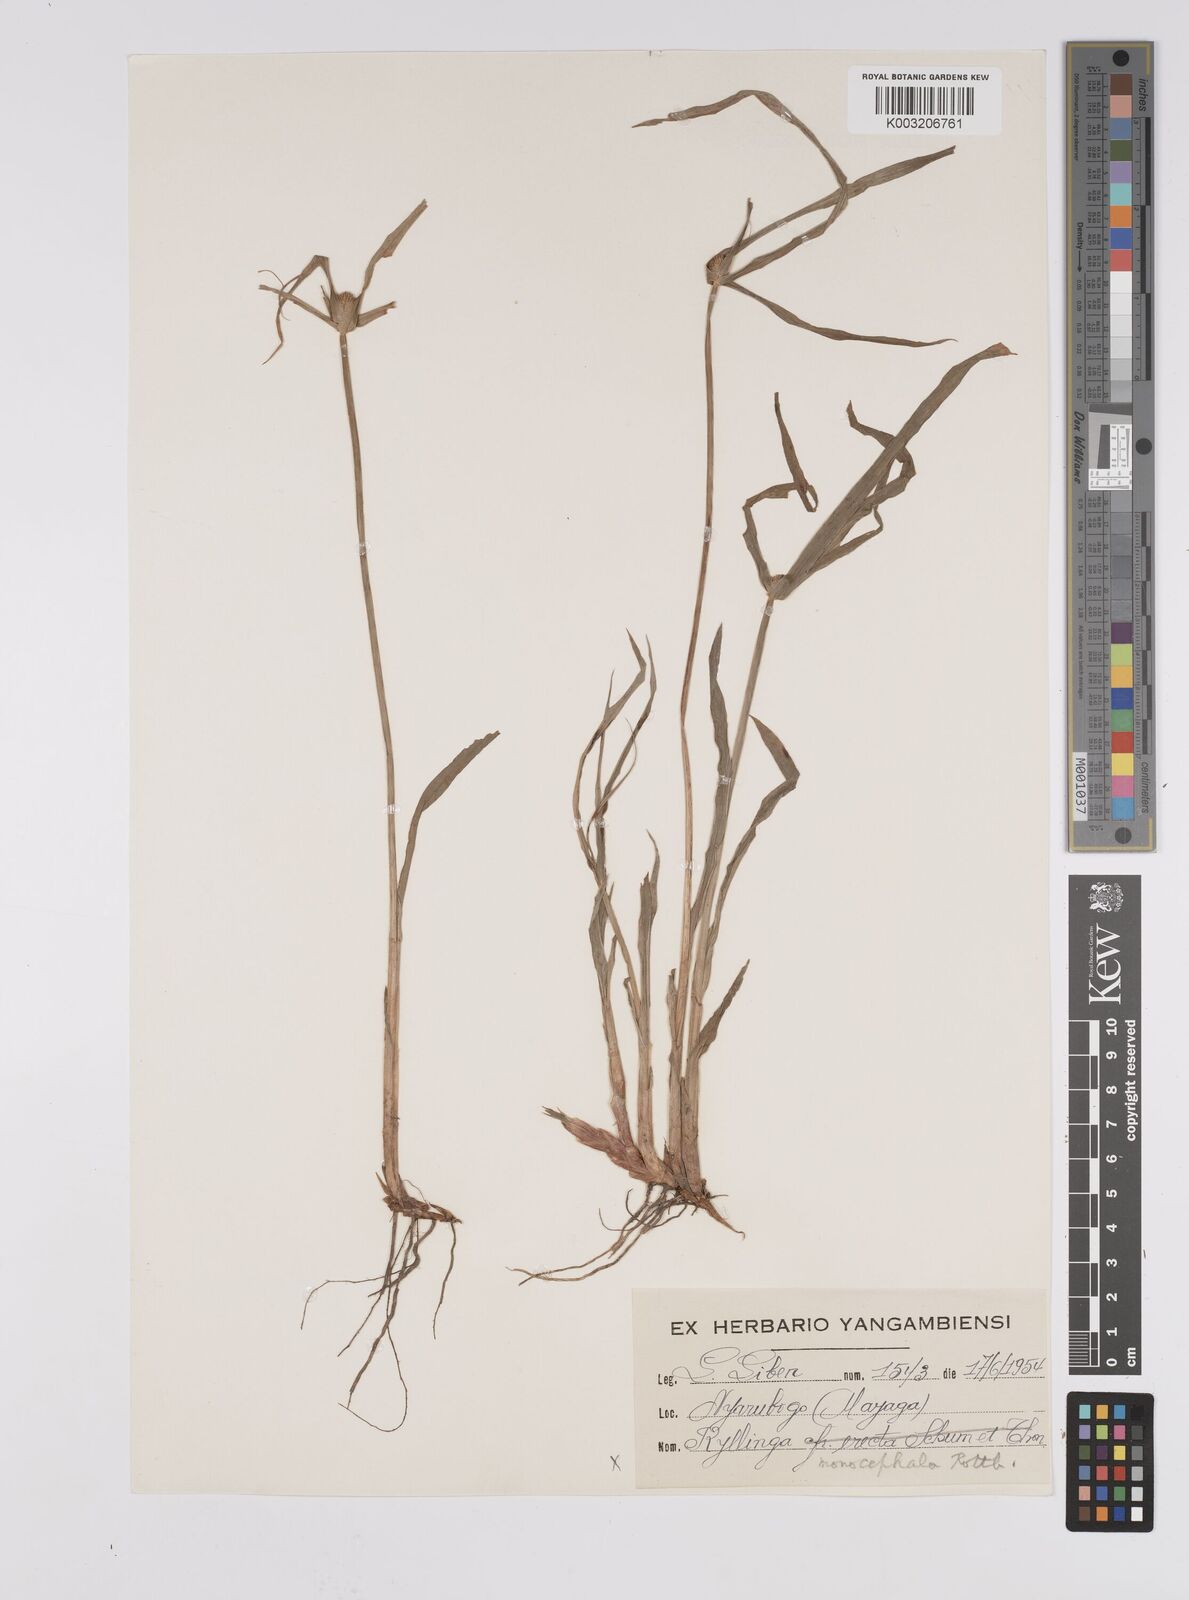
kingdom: Plantae
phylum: Tracheophyta
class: Liliopsida
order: Poales
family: Cyperaceae
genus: Cyperus
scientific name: Cyperus
